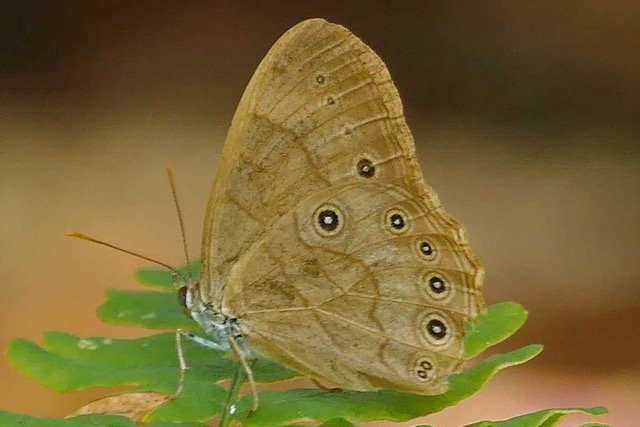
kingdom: Animalia
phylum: Arthropoda
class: Insecta
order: Lepidoptera
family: Nymphalidae
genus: Lethe
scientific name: Lethe eurydice
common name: Appalachian Eyed Brown
